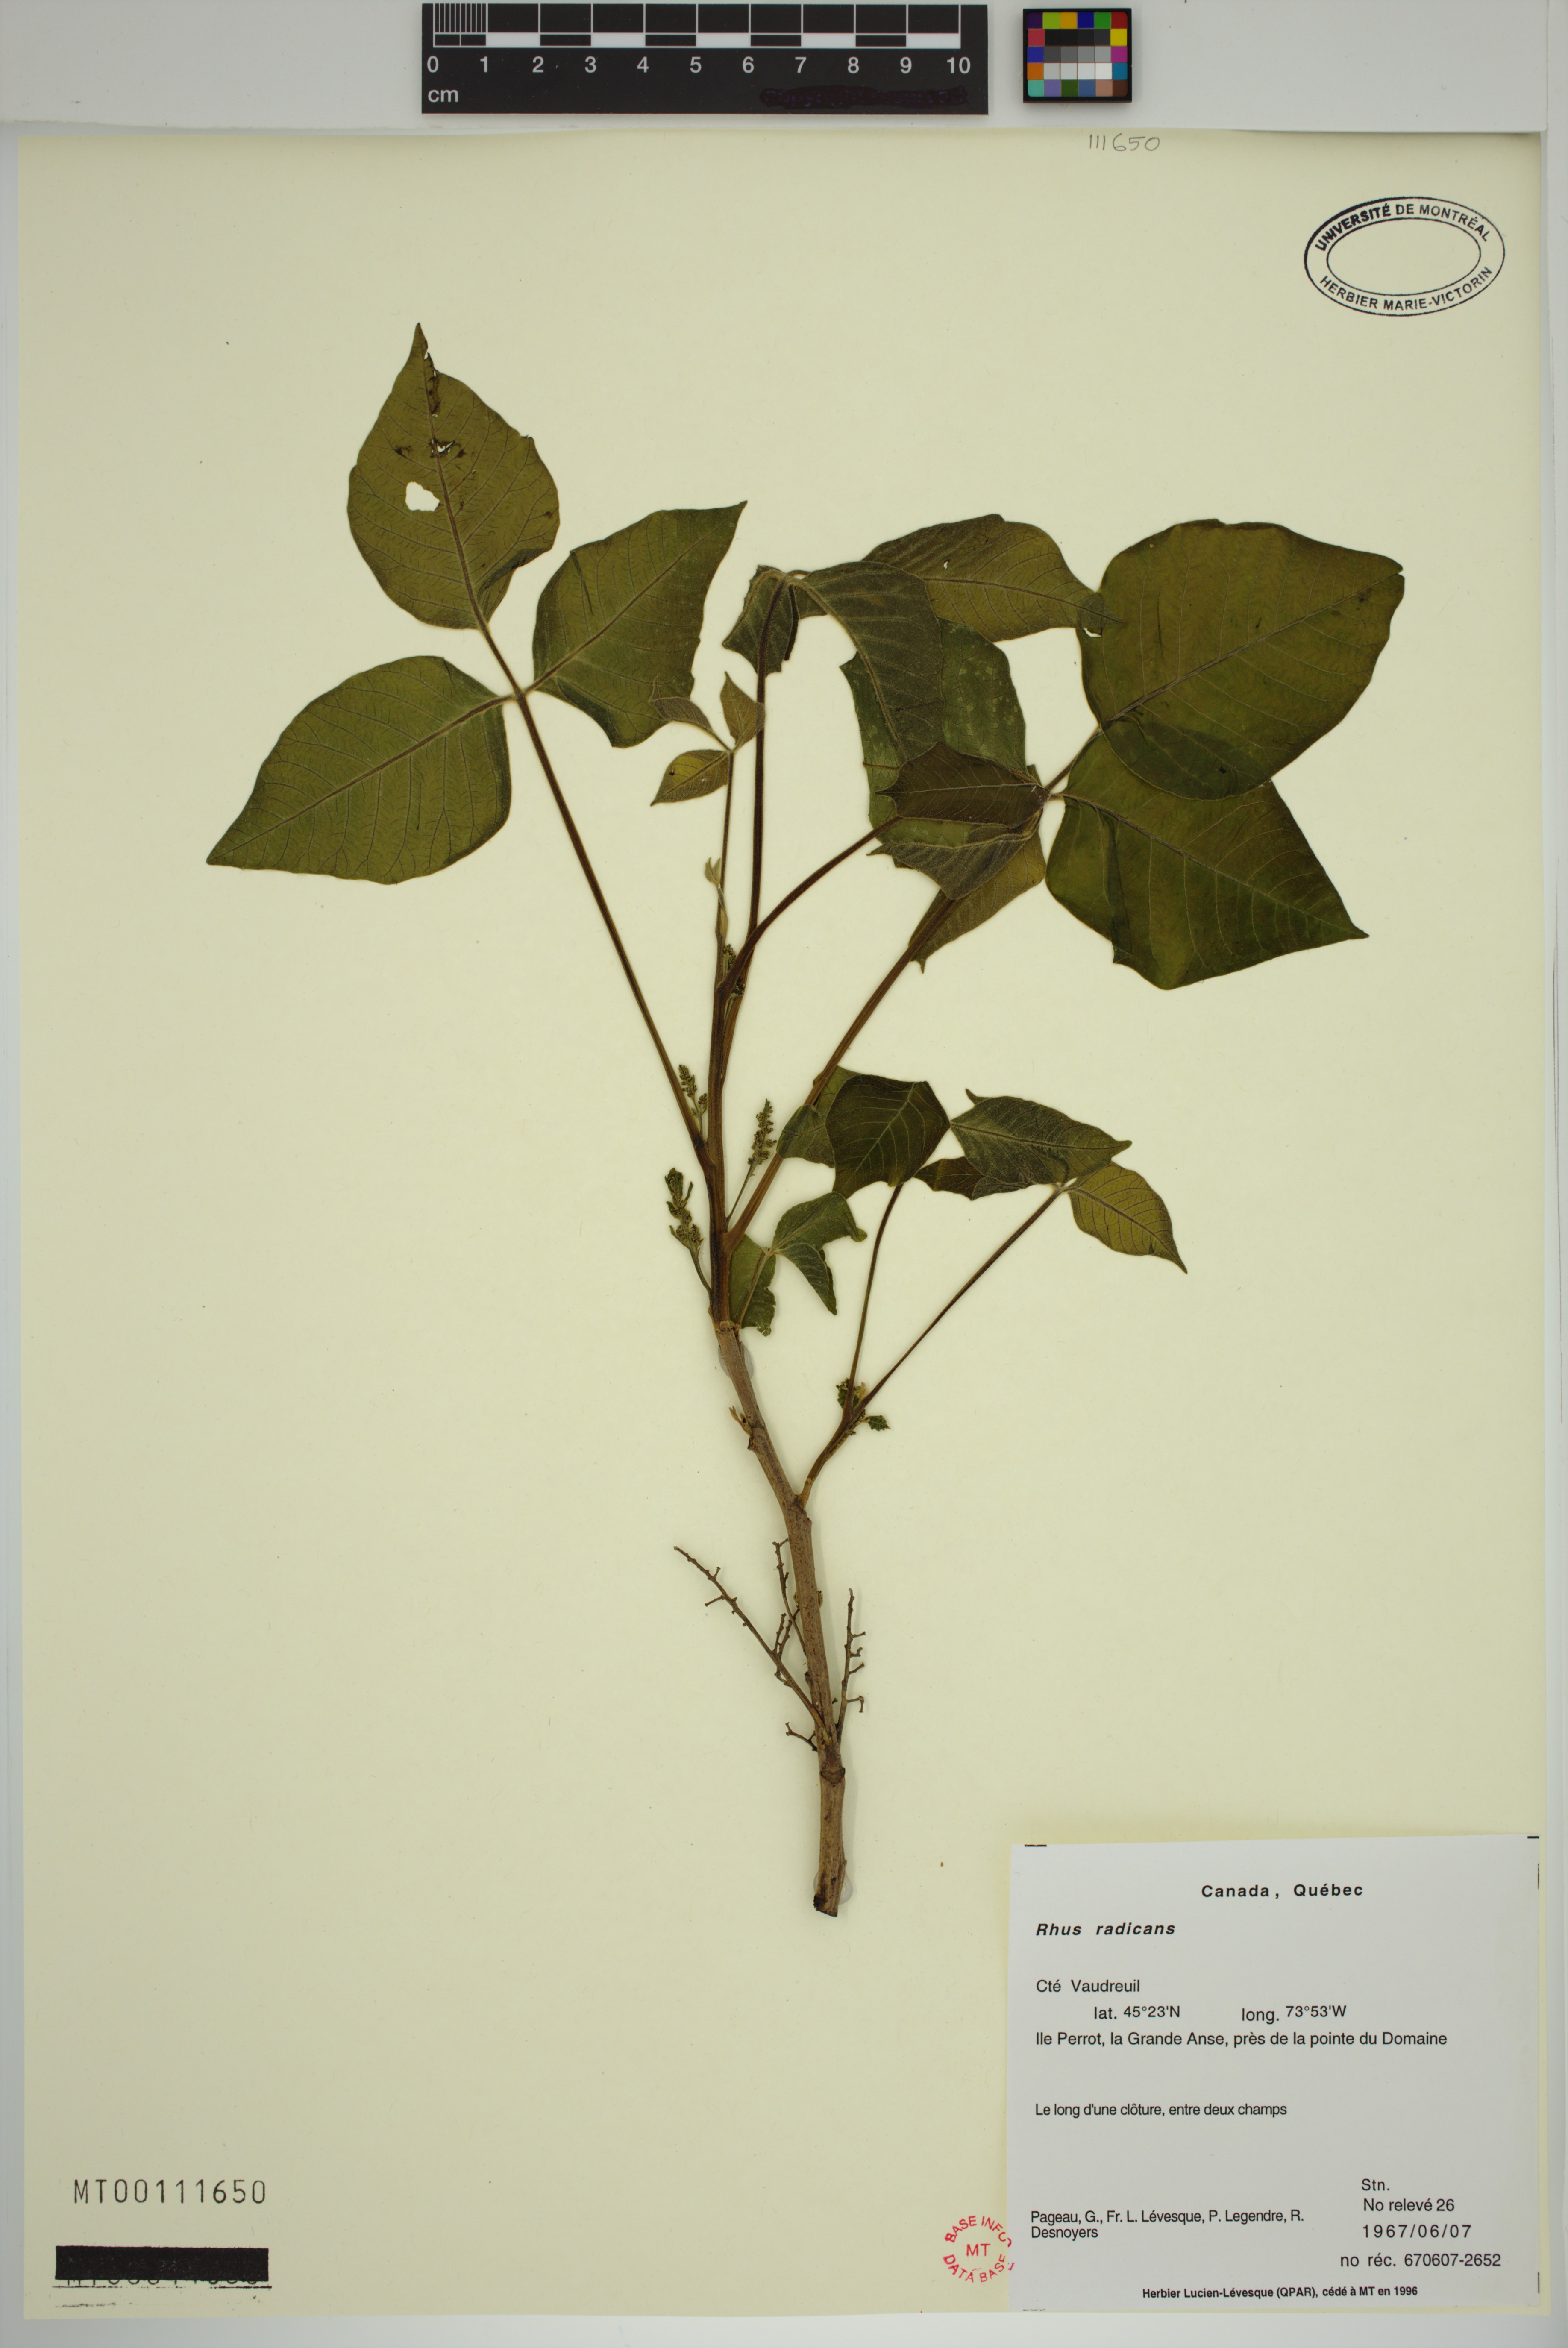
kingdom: Plantae
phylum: Tracheophyta
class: Magnoliopsida
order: Sapindales
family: Anacardiaceae
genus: Toxicodendron
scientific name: Toxicodendron radicans
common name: Poison ivy
